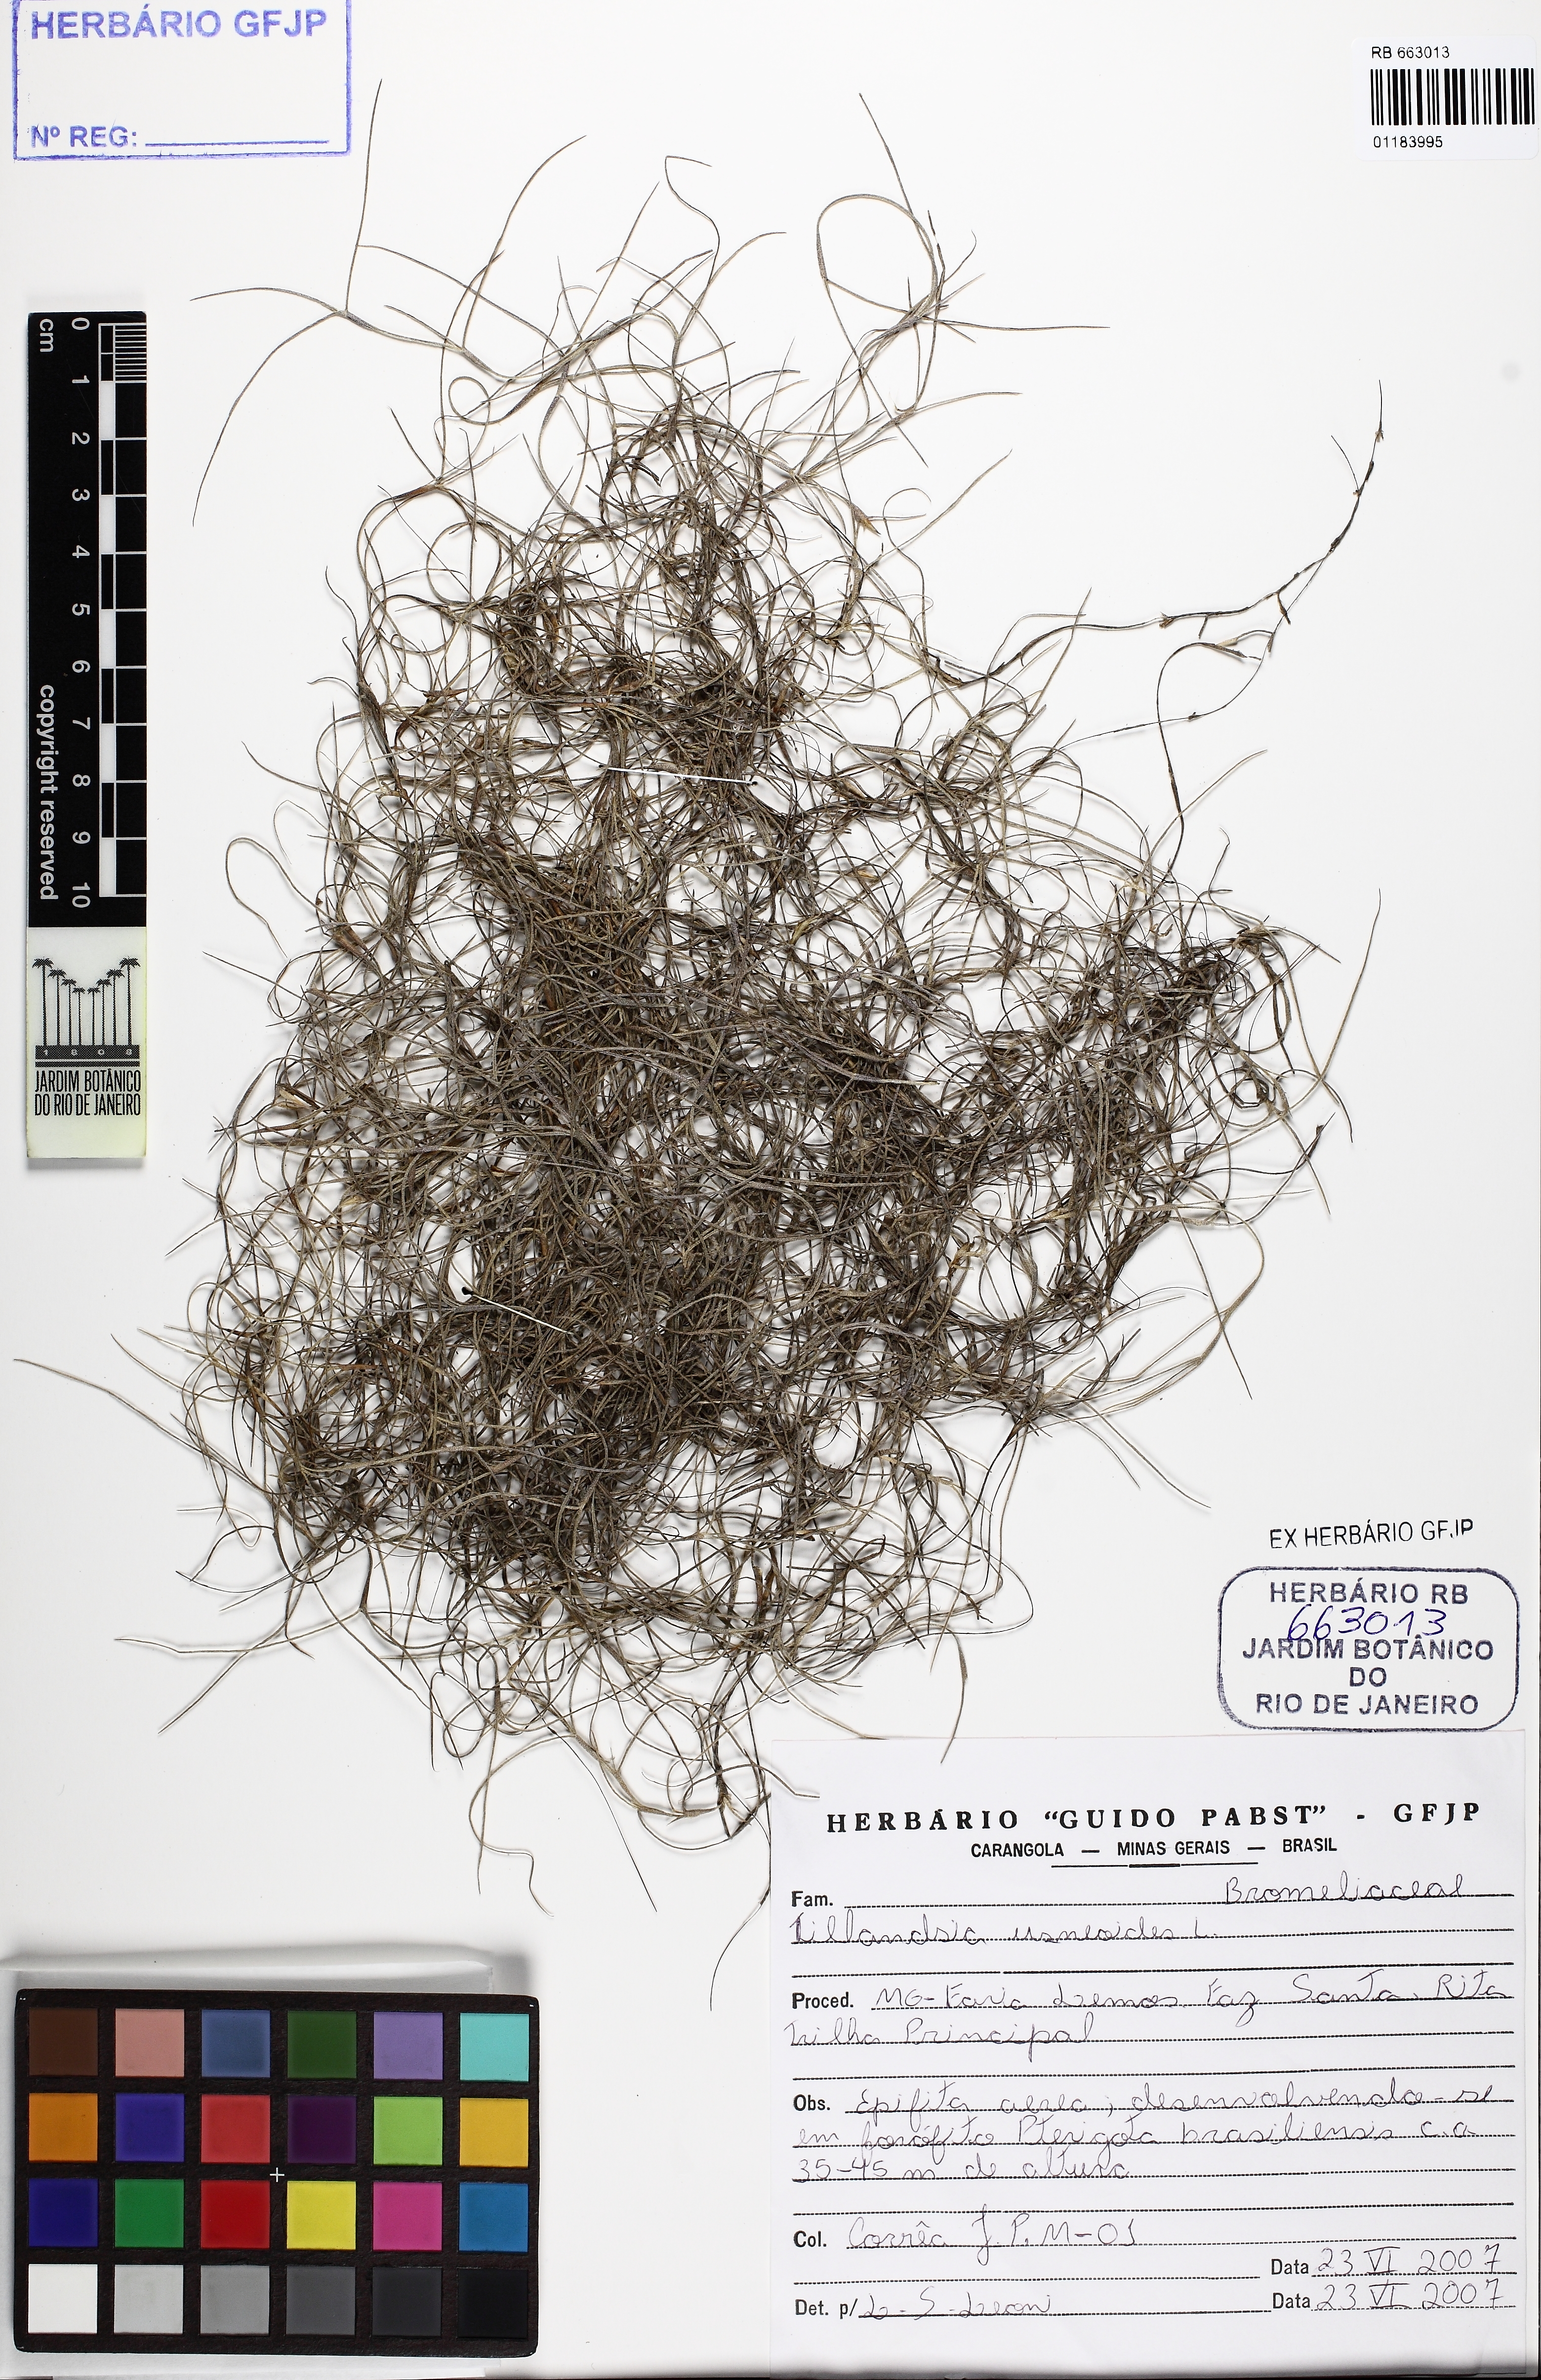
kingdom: Plantae
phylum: Tracheophyta
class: Liliopsida
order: Poales
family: Bromeliaceae
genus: Tillandsia
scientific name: Tillandsia usneoides
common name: Spanish moss
